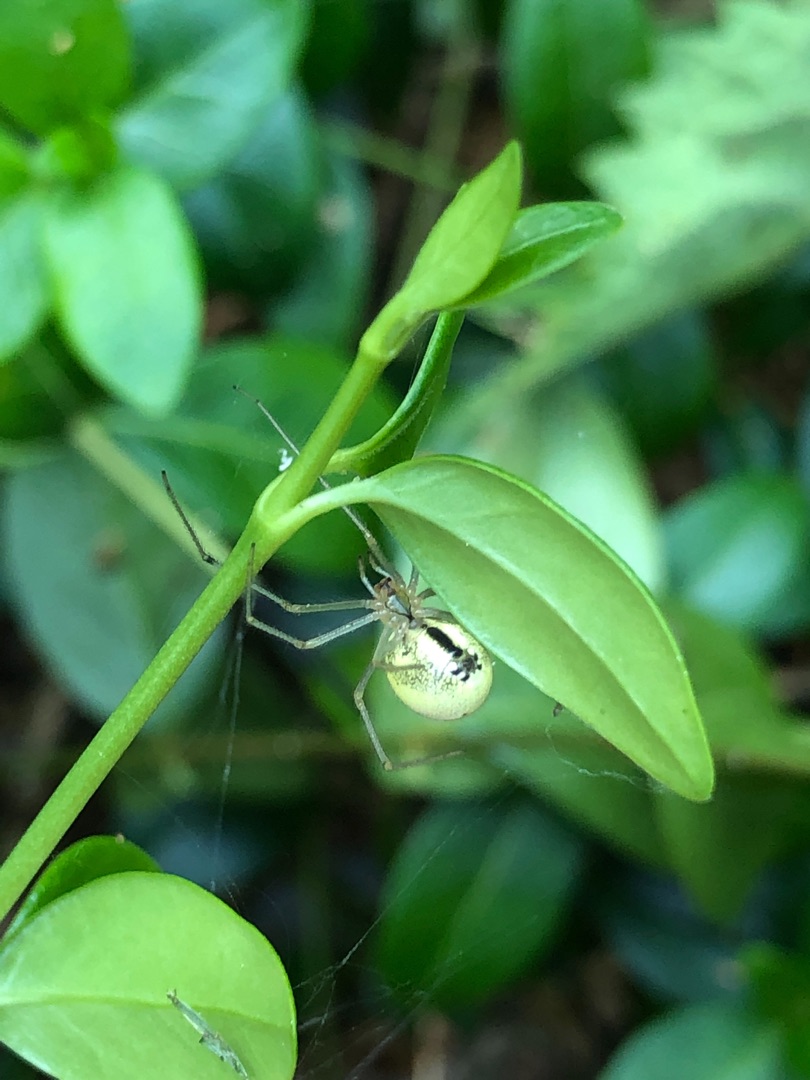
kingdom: Animalia
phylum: Arthropoda
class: Arachnida
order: Araneae
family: Theridiidae
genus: Enoplognatha
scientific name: Enoplognatha ovata
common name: Perleedderkop
